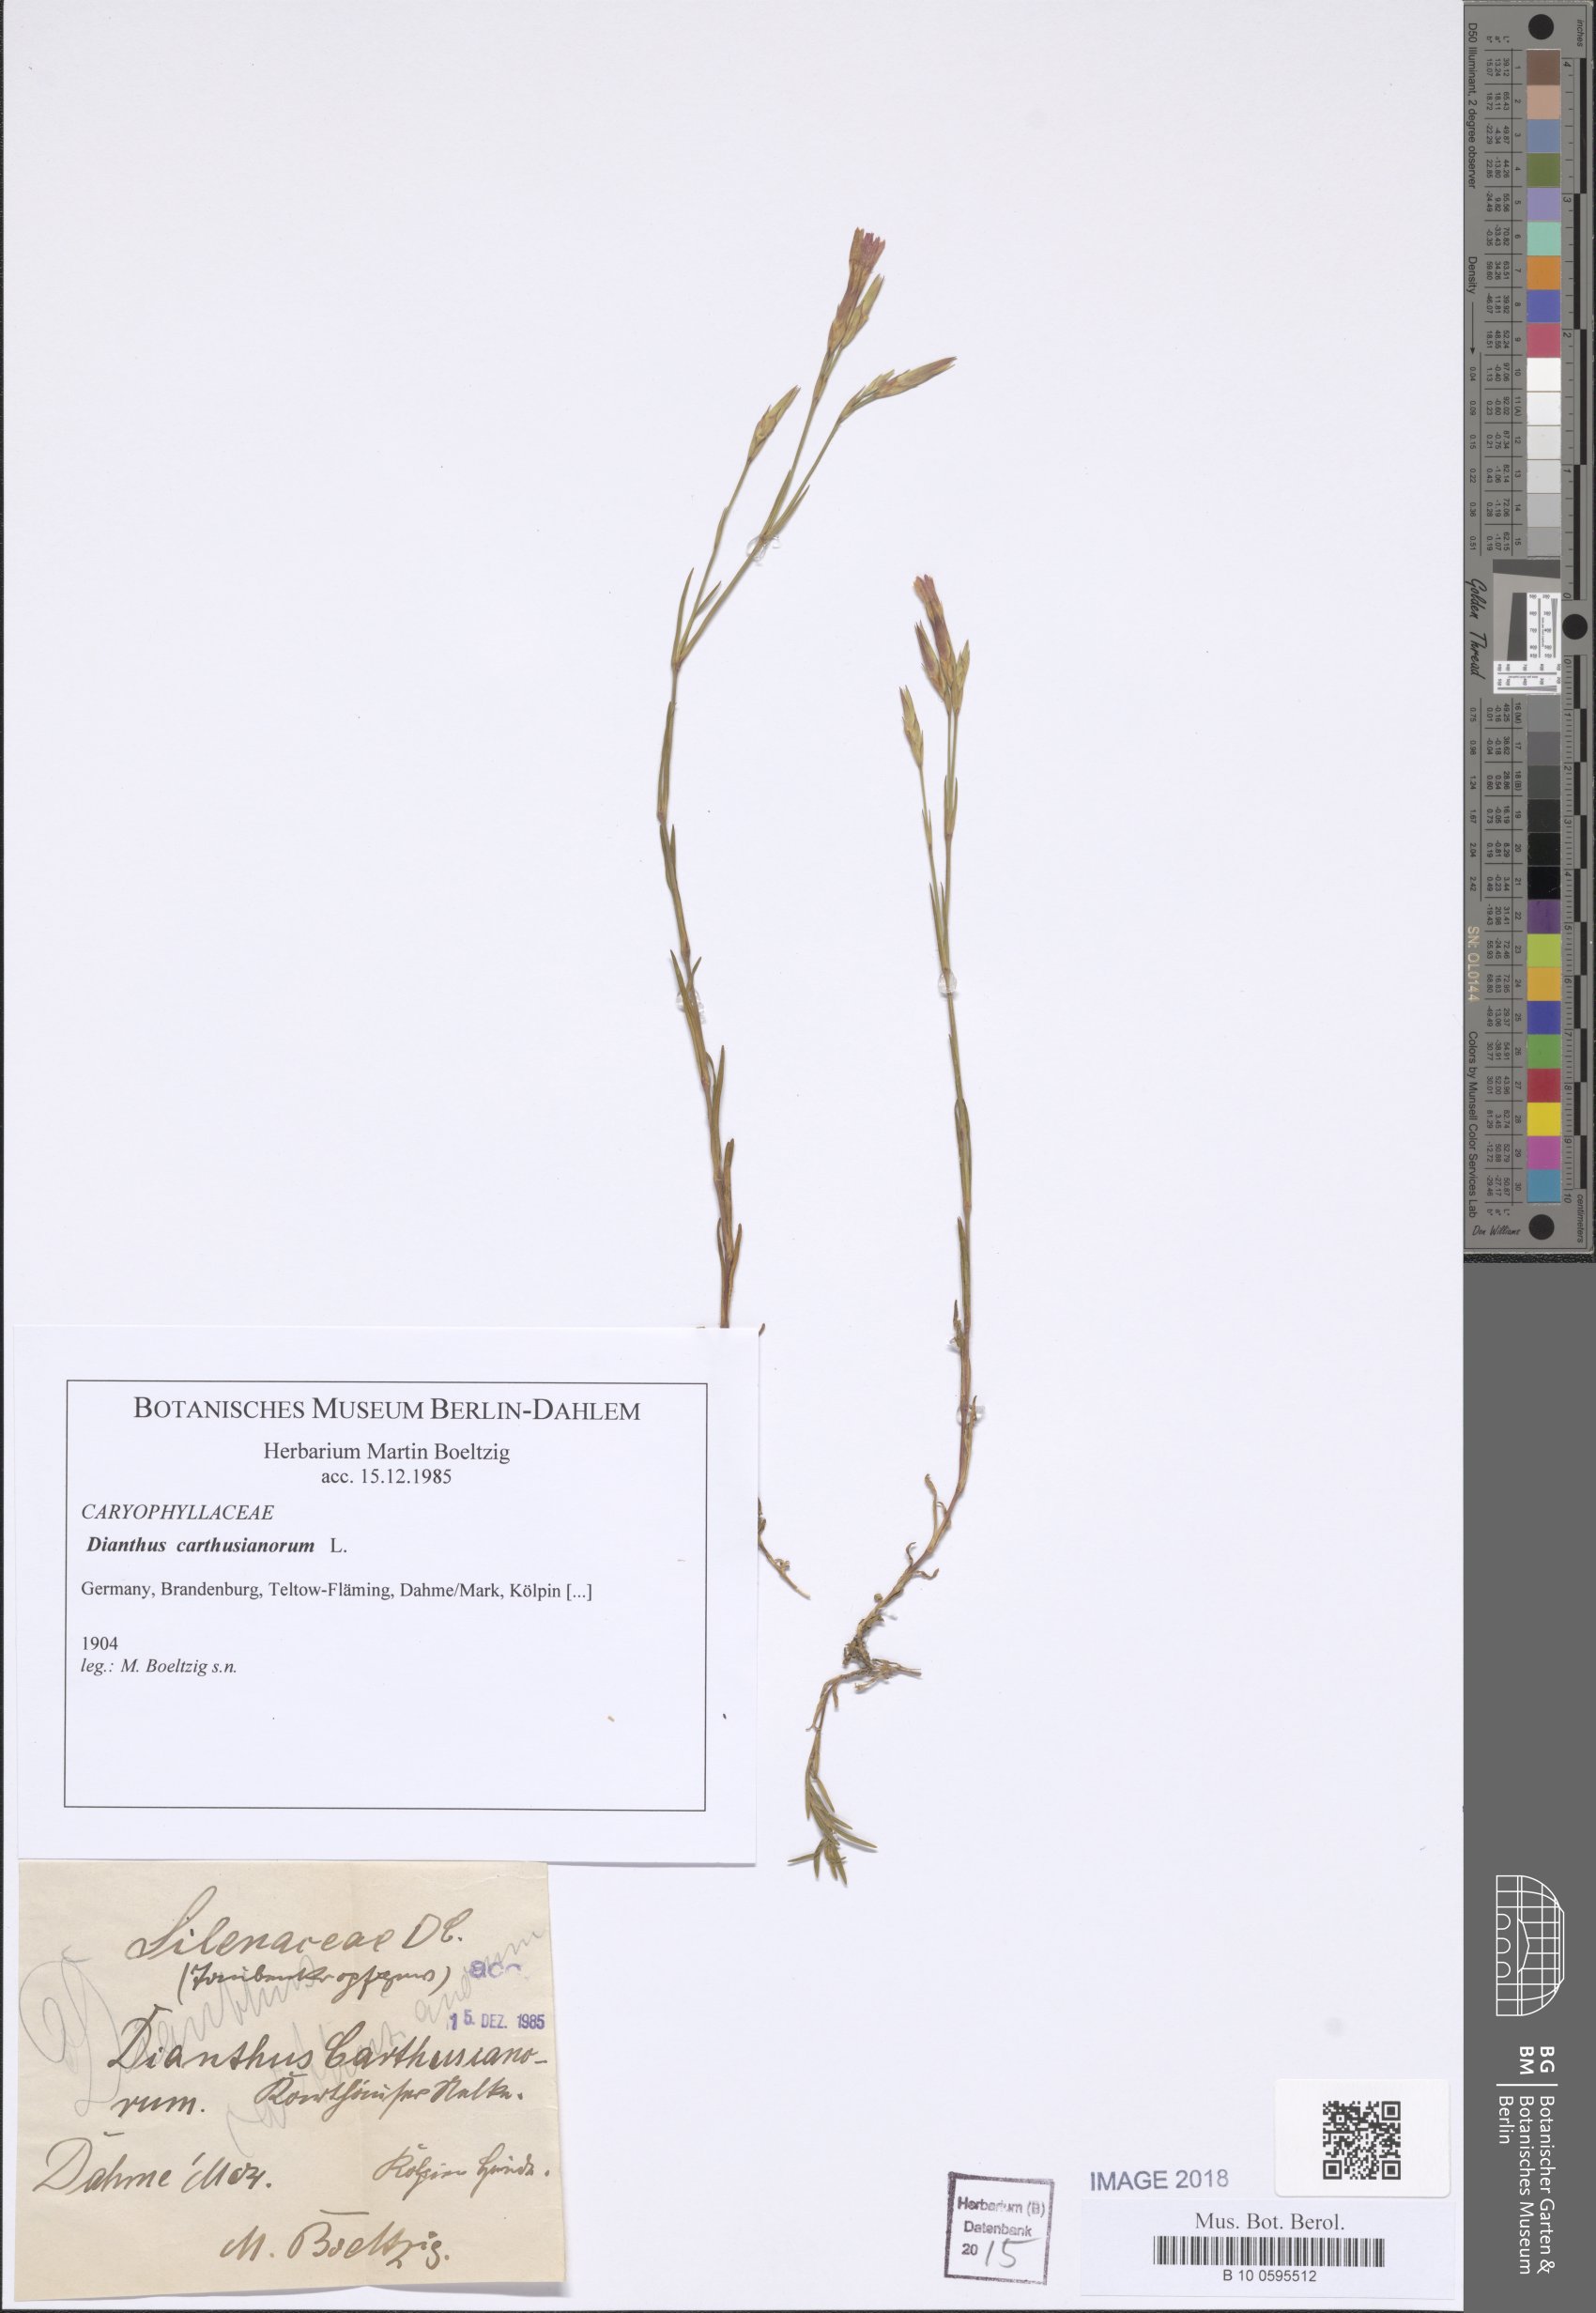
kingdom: Plantae
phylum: Tracheophyta
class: Magnoliopsida
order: Caryophyllales
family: Caryophyllaceae
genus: Dianthus
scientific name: Dianthus carthusianorum
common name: Carthusian pink
